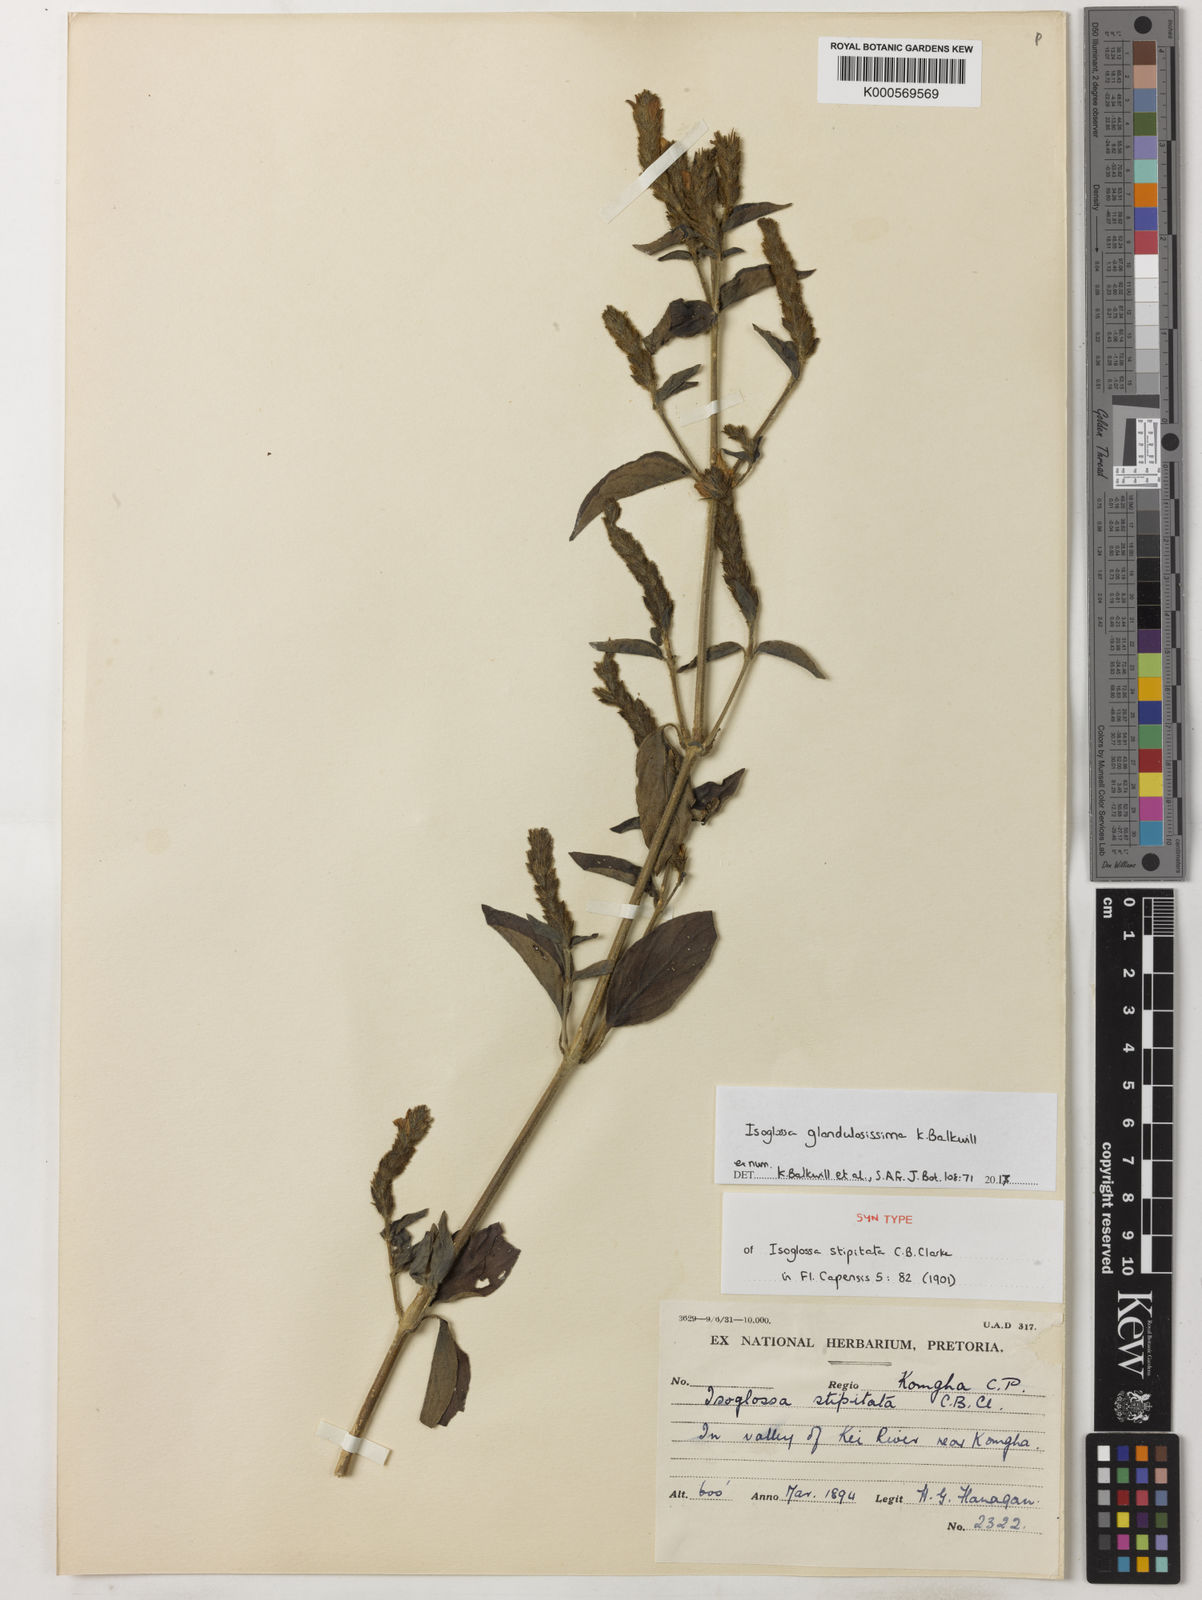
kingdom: Plantae
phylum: Tracheophyta
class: Magnoliopsida
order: Lamiales
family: Acanthaceae
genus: Isoglossa
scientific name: Isoglossa glandulosissima
